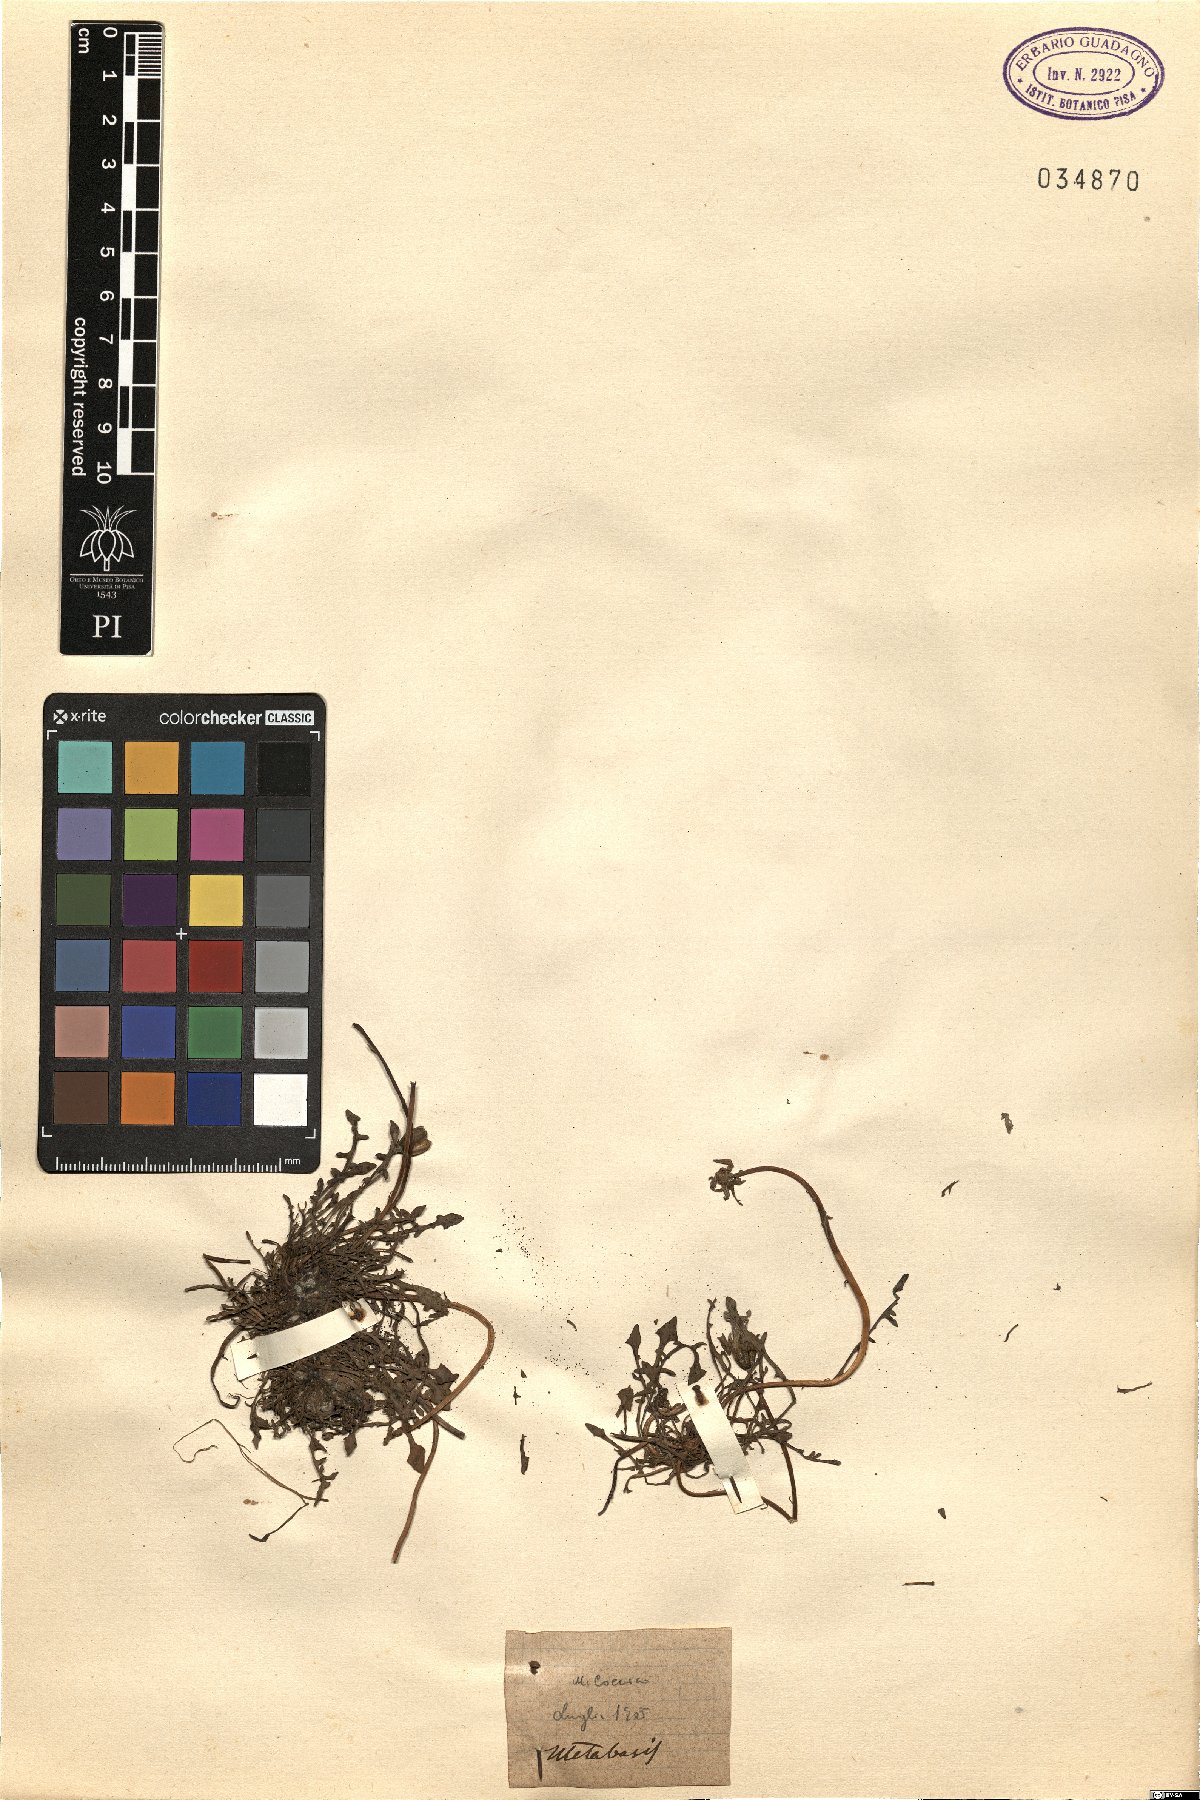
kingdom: Animalia
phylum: Arthropoda
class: Insecta
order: Diptera
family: Stratiomyidae
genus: Metabasis
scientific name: Metabasis
